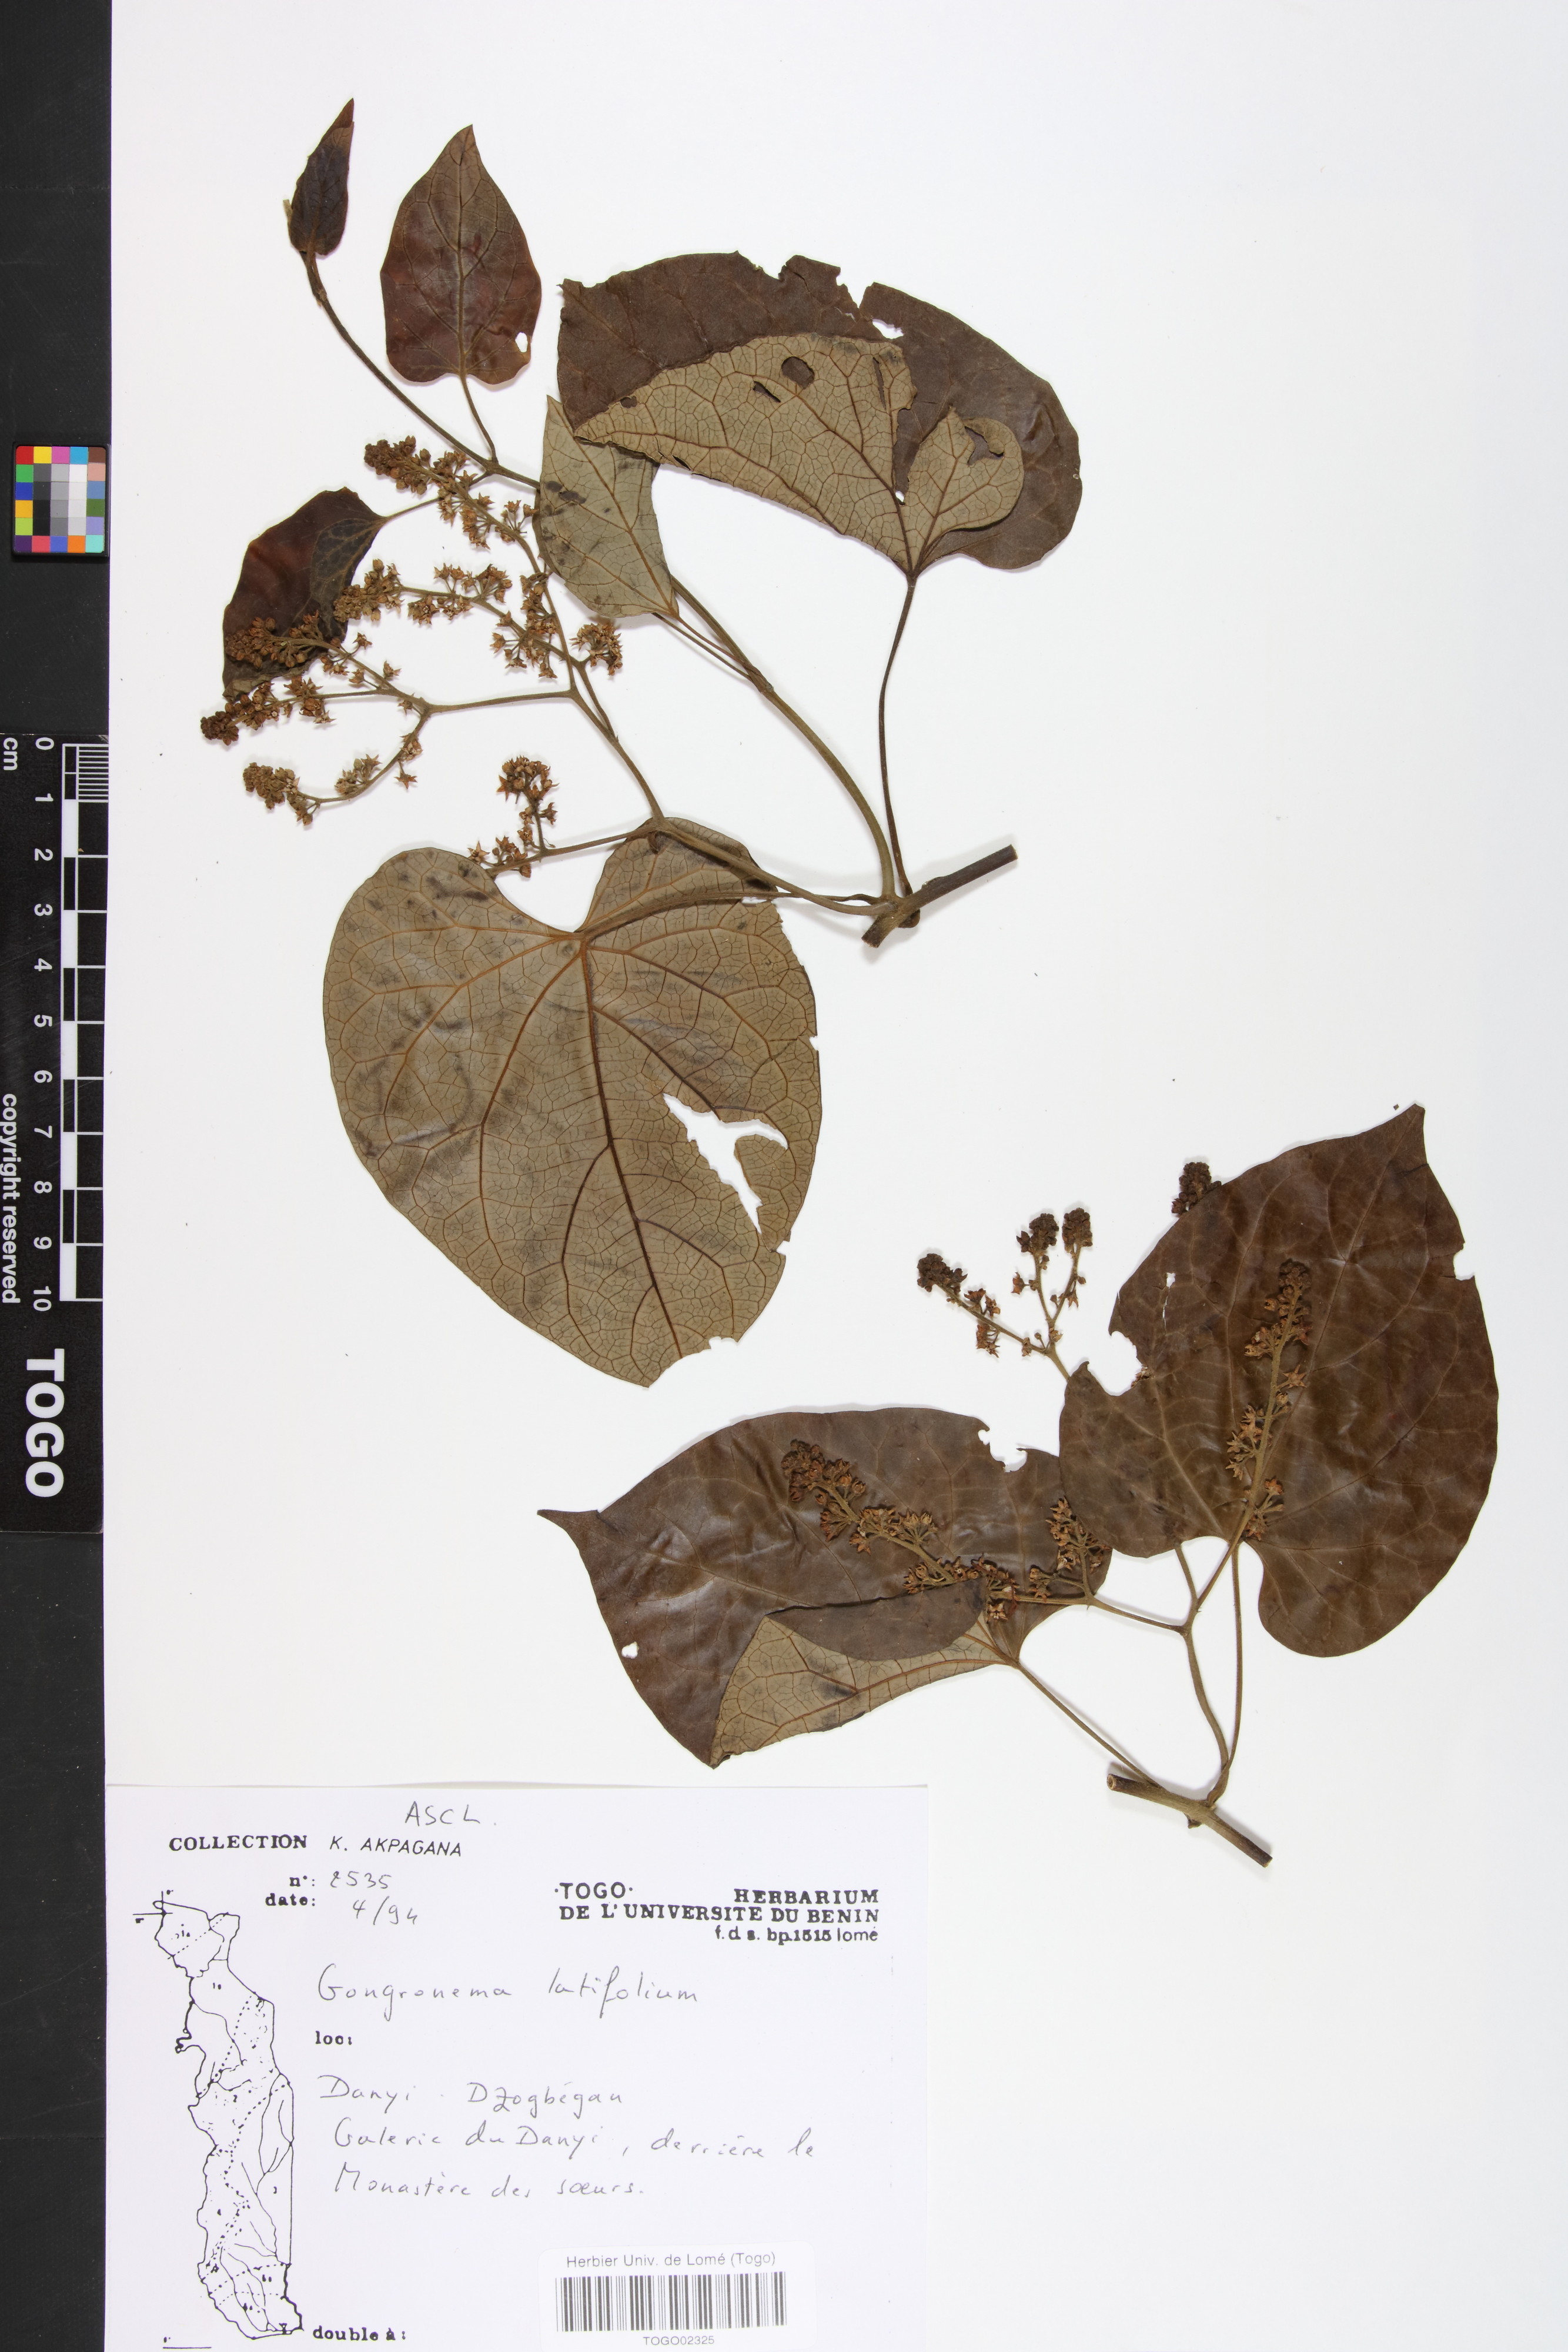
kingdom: Plantae
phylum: Tracheophyta
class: Magnoliopsida
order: Gentianales
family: Apocynaceae
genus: Gongronemopsis
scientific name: Gongronemopsis latifolia
